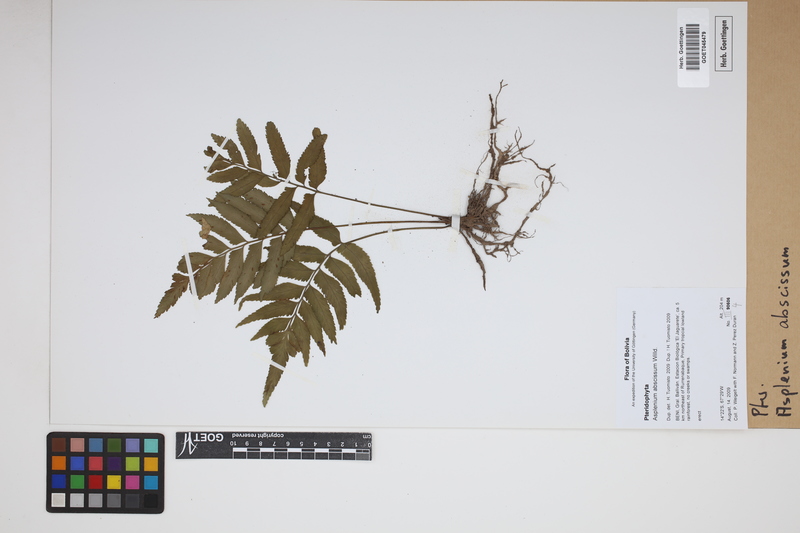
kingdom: Plantae
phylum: Tracheophyta
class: Polypodiopsida
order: Polypodiales
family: Aspleniaceae
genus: Asplenium
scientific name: Asplenium abscissum
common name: Cutleaf spleenwort
